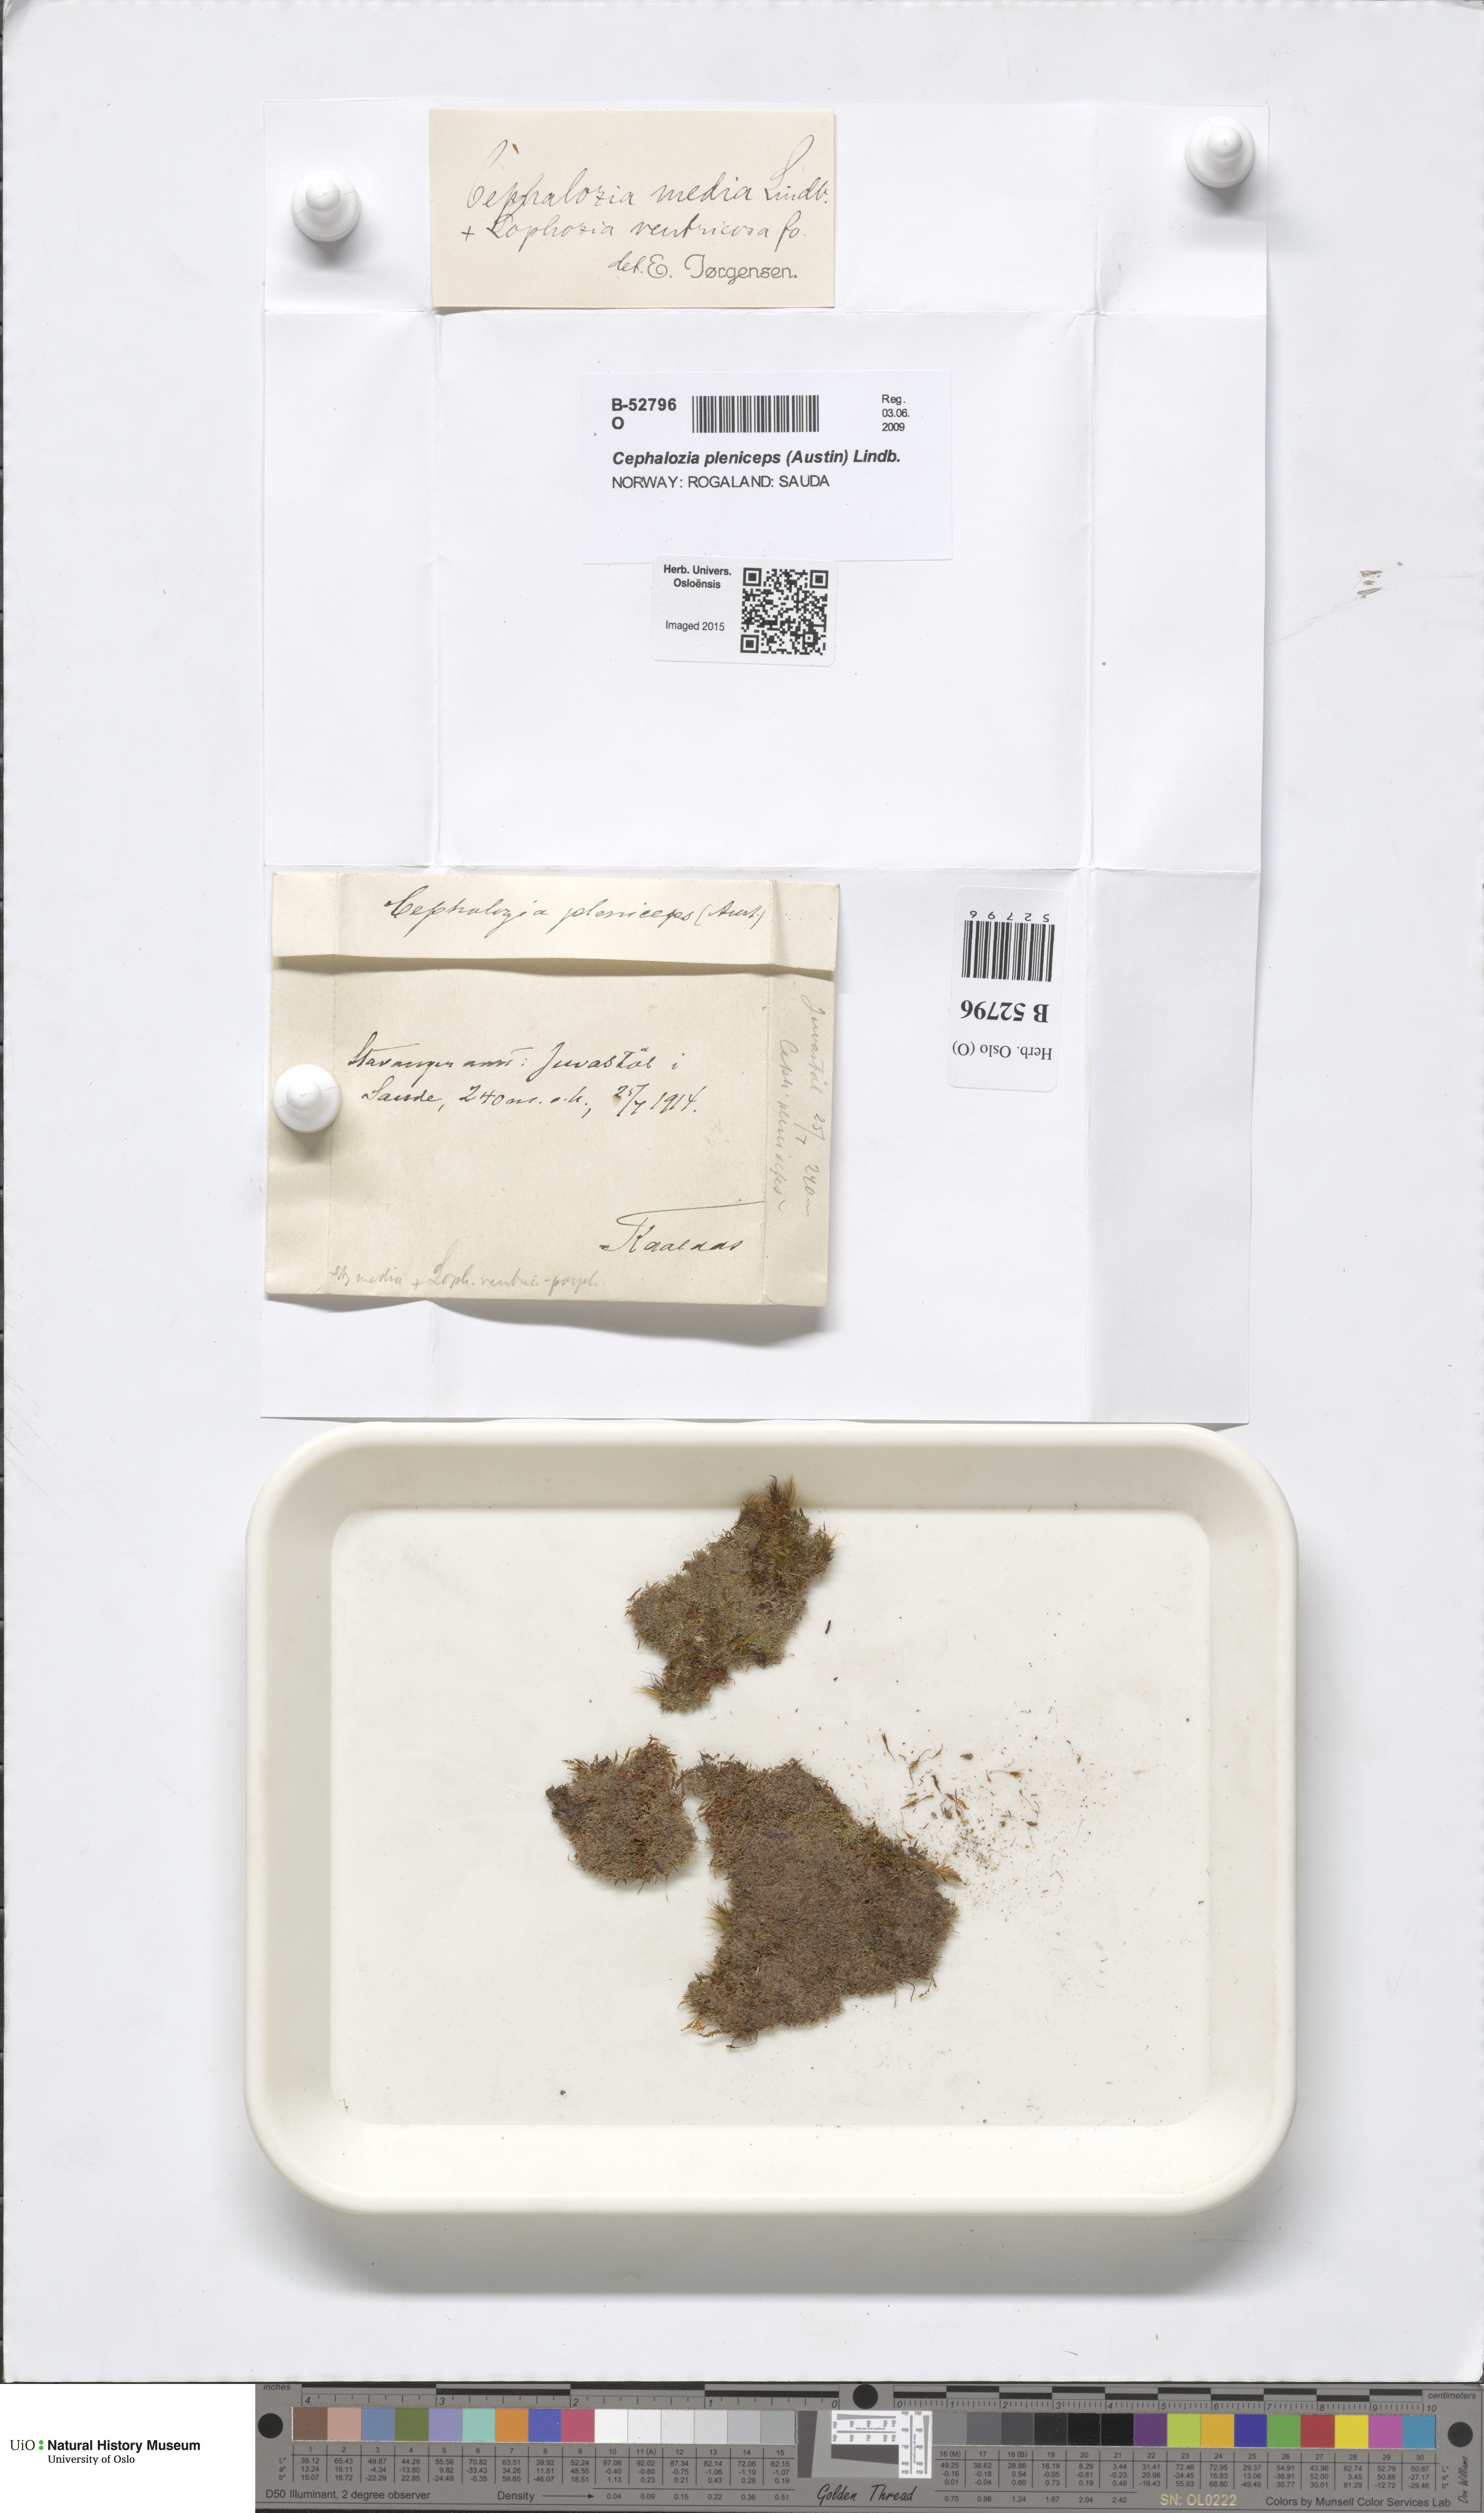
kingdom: Plantae
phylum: Marchantiophyta
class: Jungermanniopsida
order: Jungermanniales
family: Cephaloziaceae
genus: Fuscocephaloziopsis
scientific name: Fuscocephaloziopsis lunulifolia
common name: Moon-leaved pincerwort
